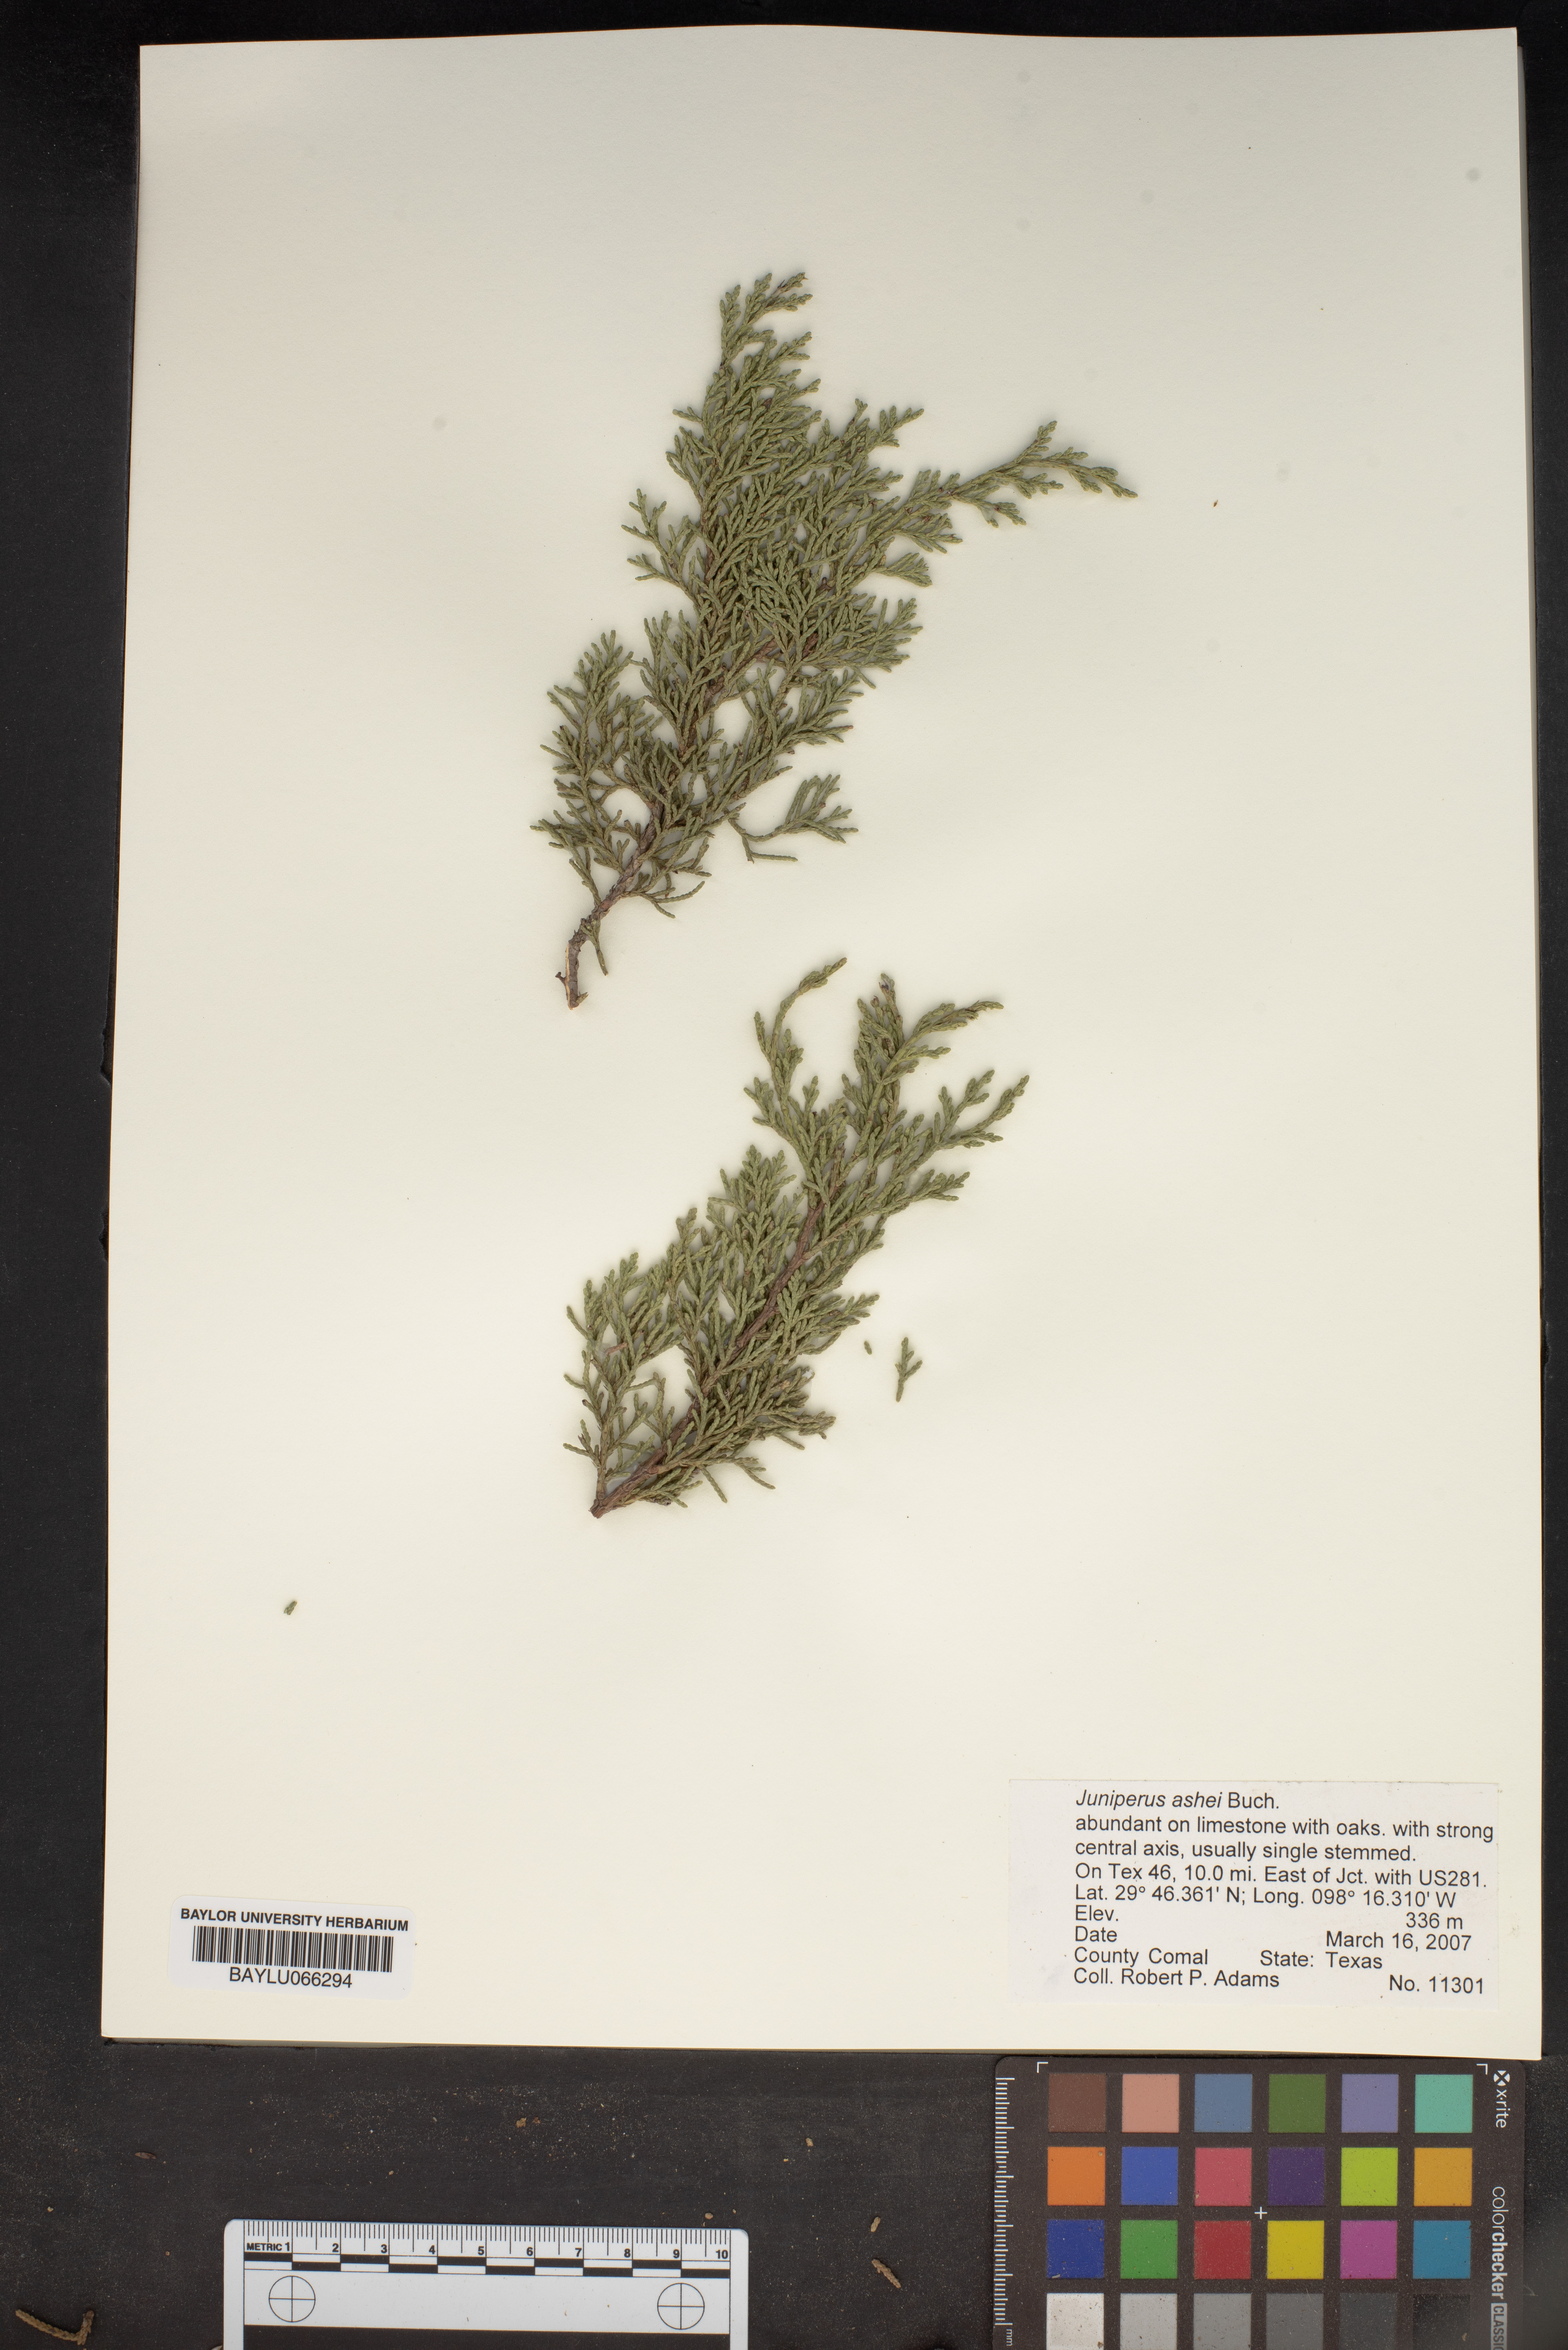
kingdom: Plantae
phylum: Tracheophyta
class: Pinopsida
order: Pinales
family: Cupressaceae
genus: Juniperus
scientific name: Juniperus ashei
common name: Mexican juniper
